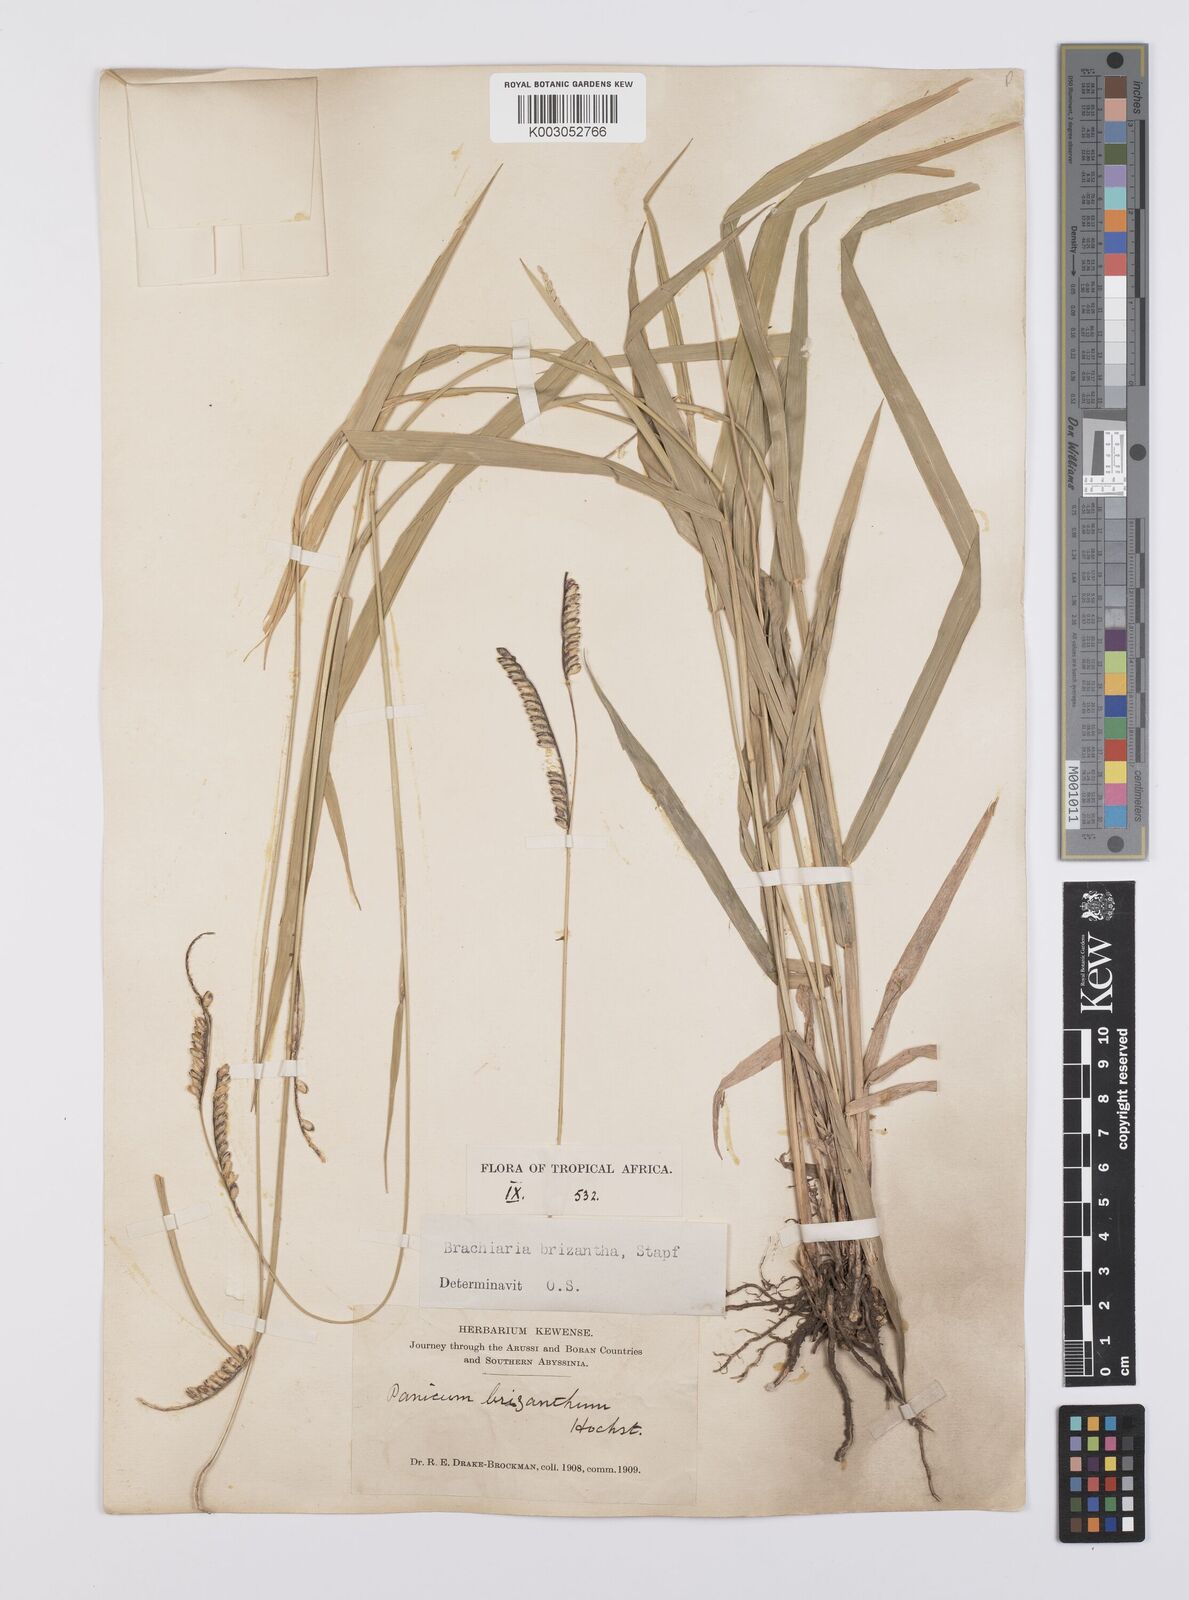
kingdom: Plantae
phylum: Tracheophyta
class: Liliopsida
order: Poales
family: Poaceae
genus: Urochloa
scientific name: Urochloa brizantha
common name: Palisade signalgrass
